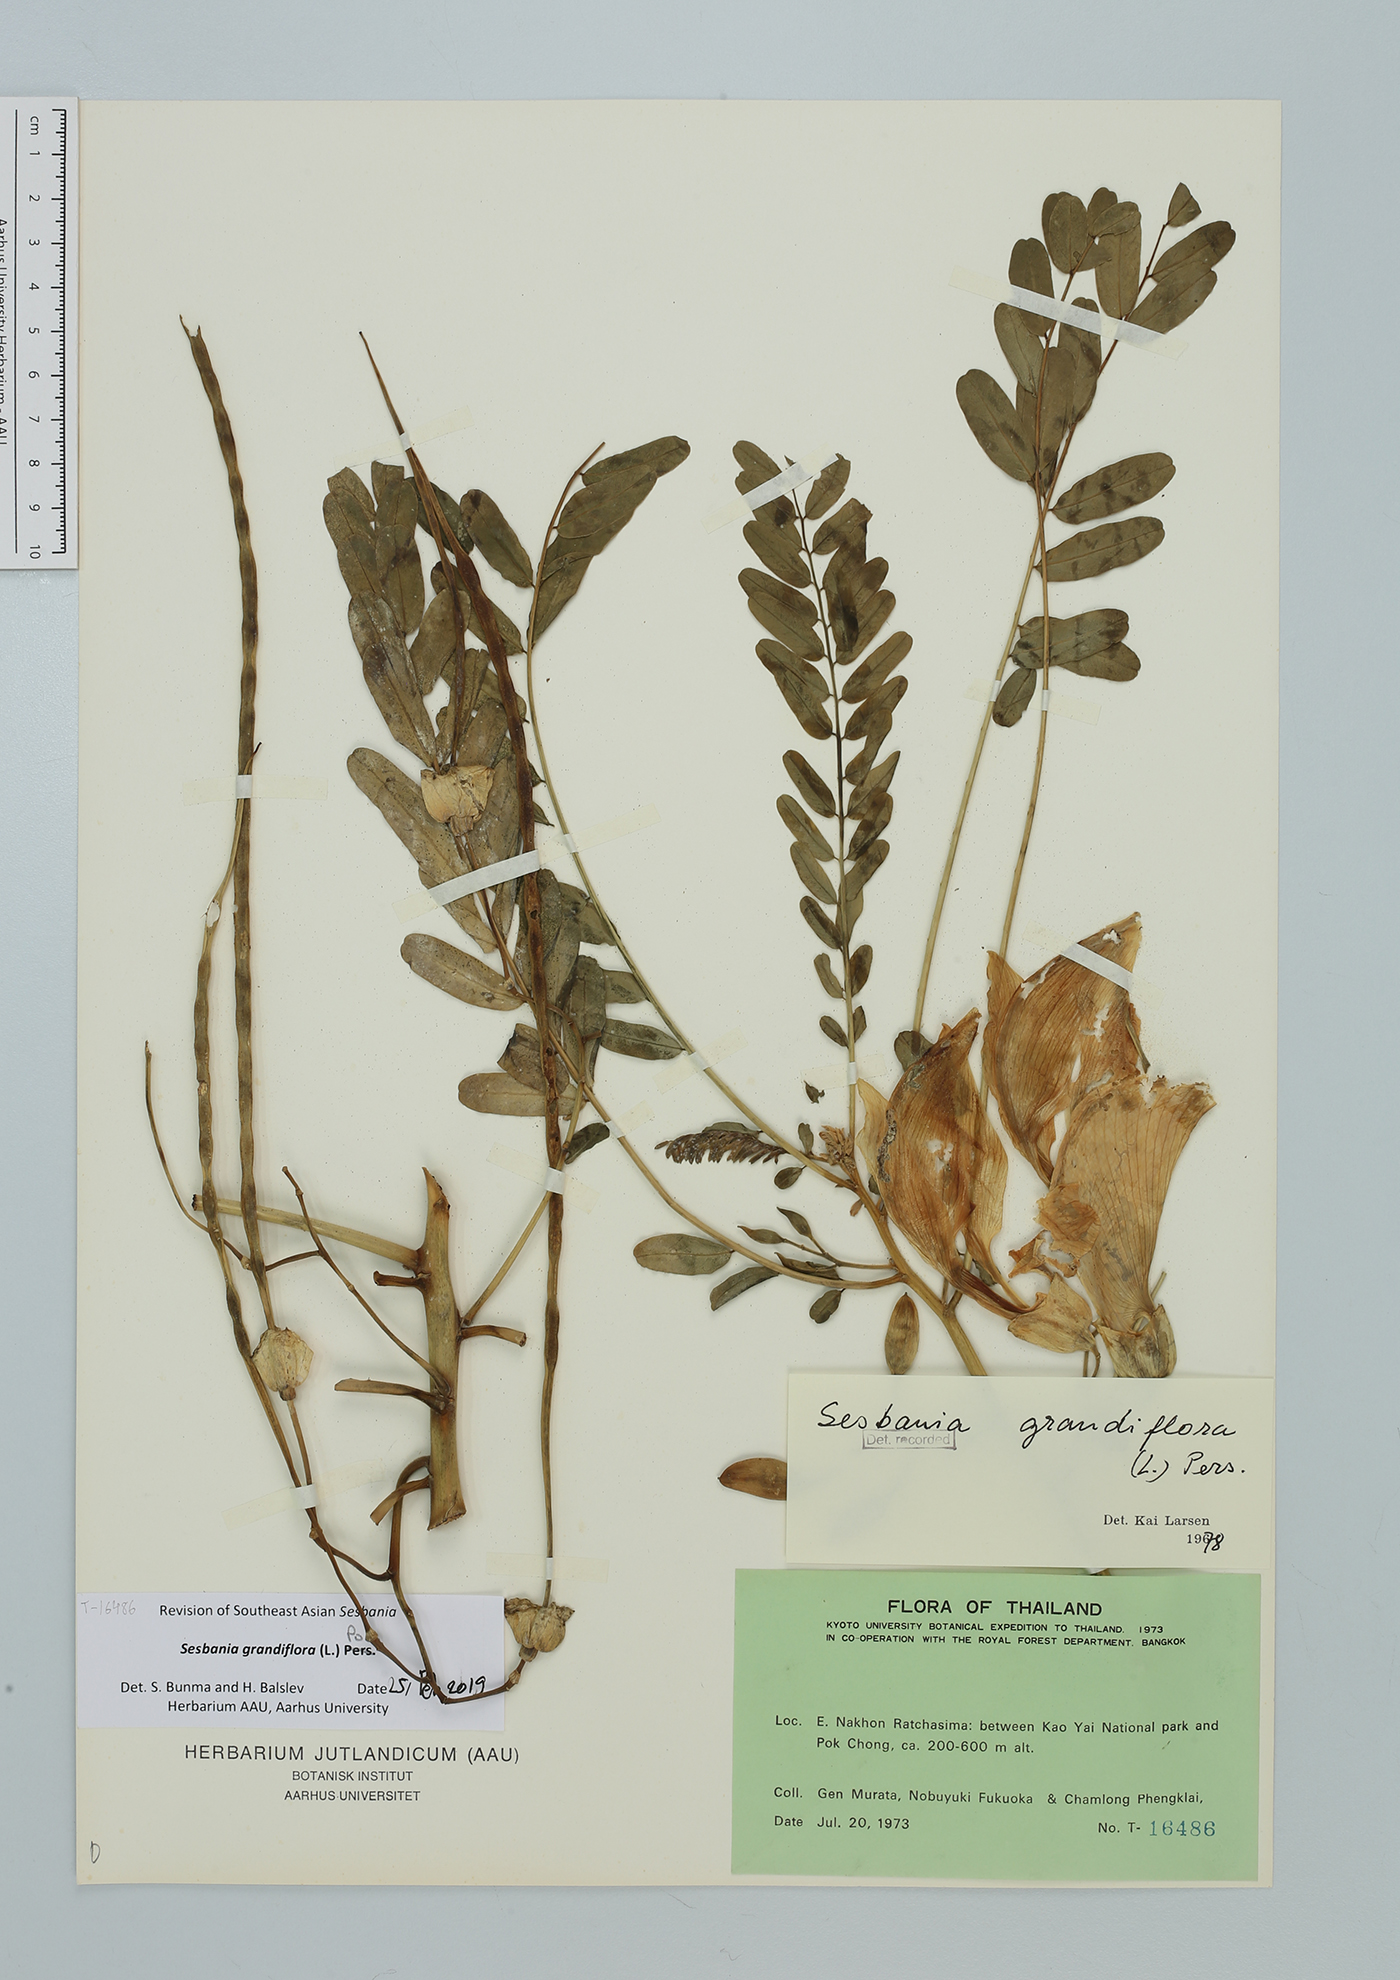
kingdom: Plantae
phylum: Tracheophyta
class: Magnoliopsida
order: Fabales
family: Fabaceae
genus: Sesbania
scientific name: Sesbania grandiflora
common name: Vegetable-hummingbird
